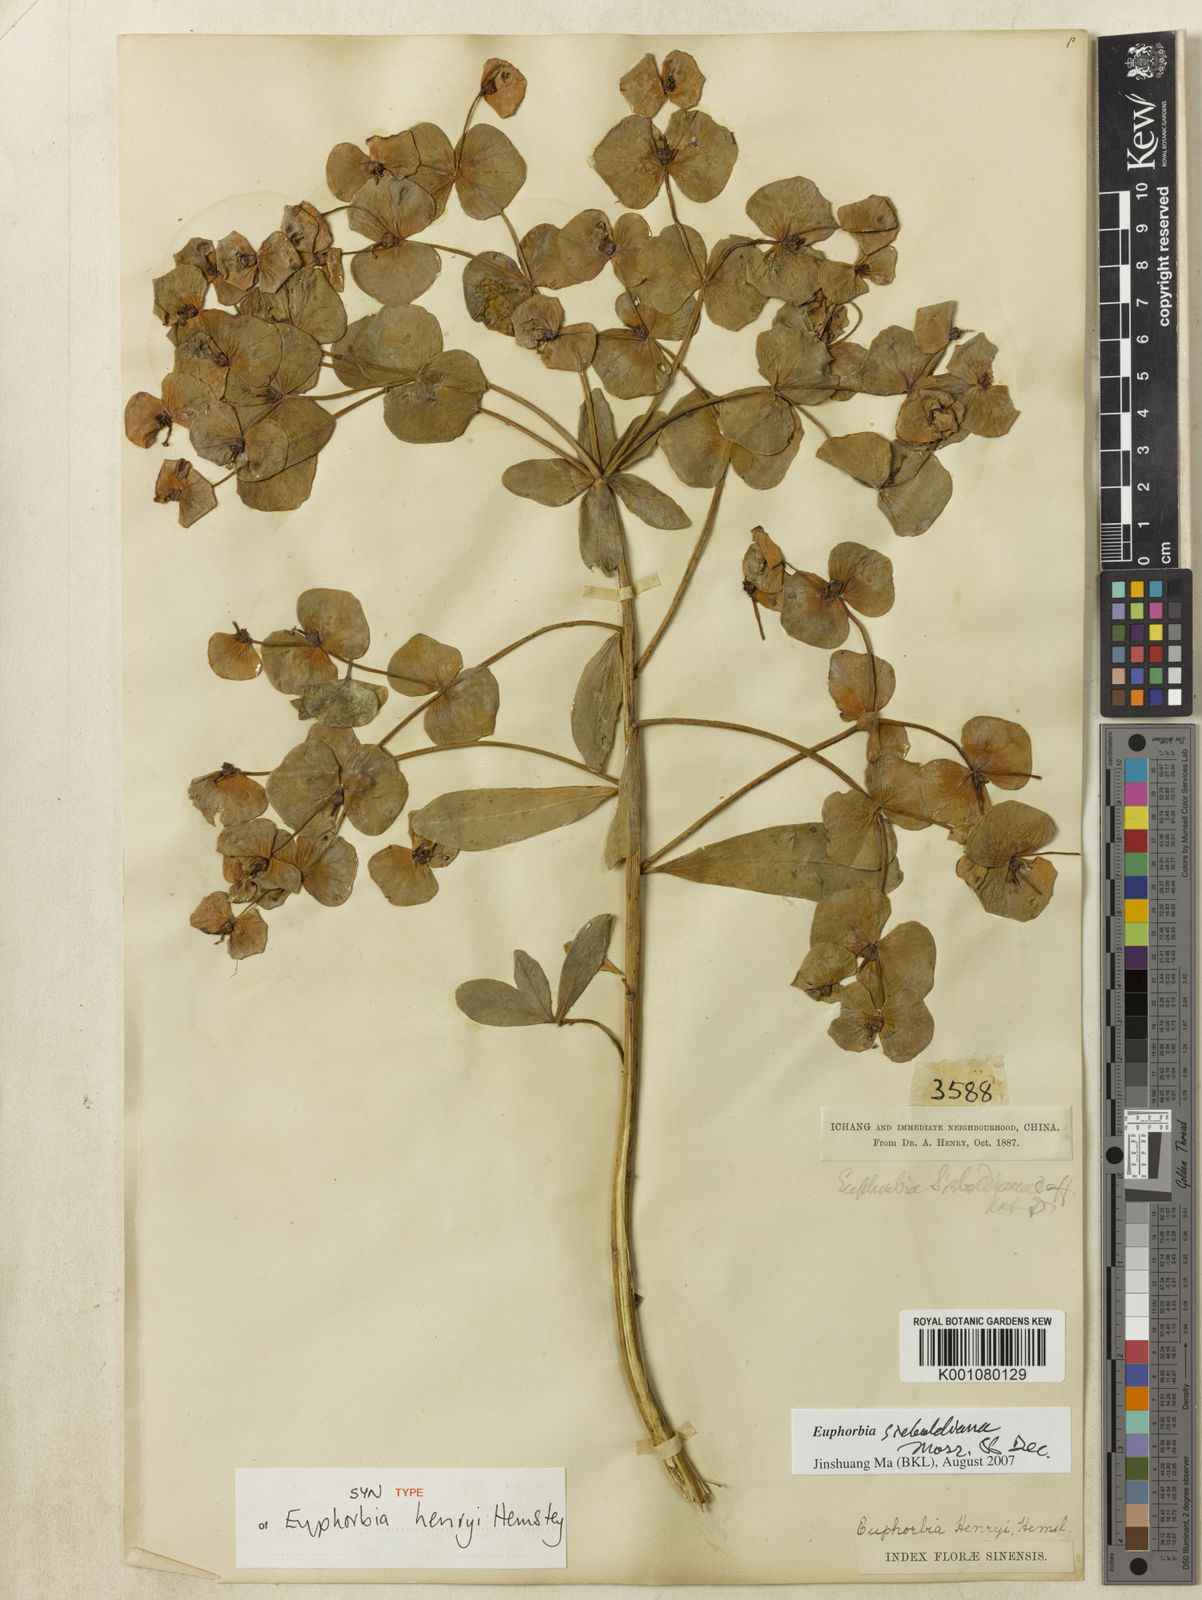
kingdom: Plantae
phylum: Tracheophyta
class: Magnoliopsida
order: Malpighiales
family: Euphorbiaceae
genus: Euphorbia
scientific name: Euphorbia sieboldiana
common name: Siebold's spurge
